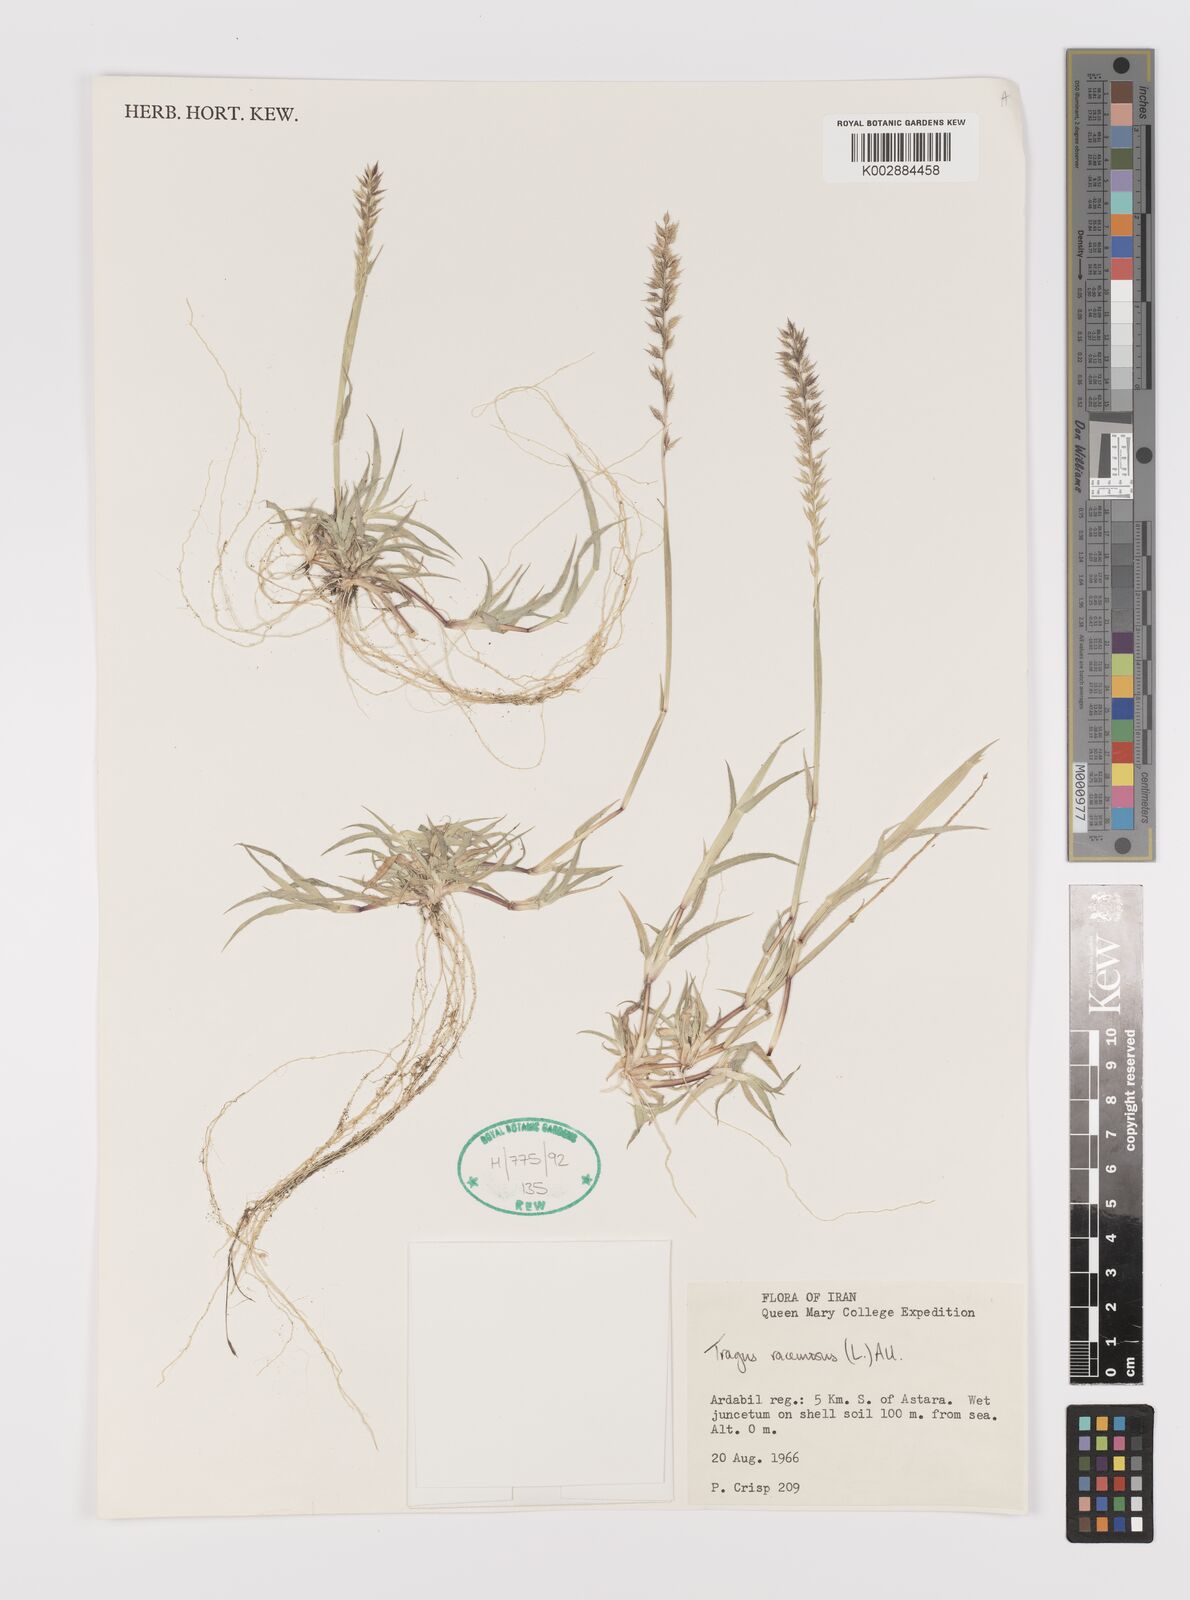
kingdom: Plantae
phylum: Tracheophyta
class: Liliopsida
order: Poales
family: Poaceae
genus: Tragus
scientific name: Tragus racemosus
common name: European bur-grass
